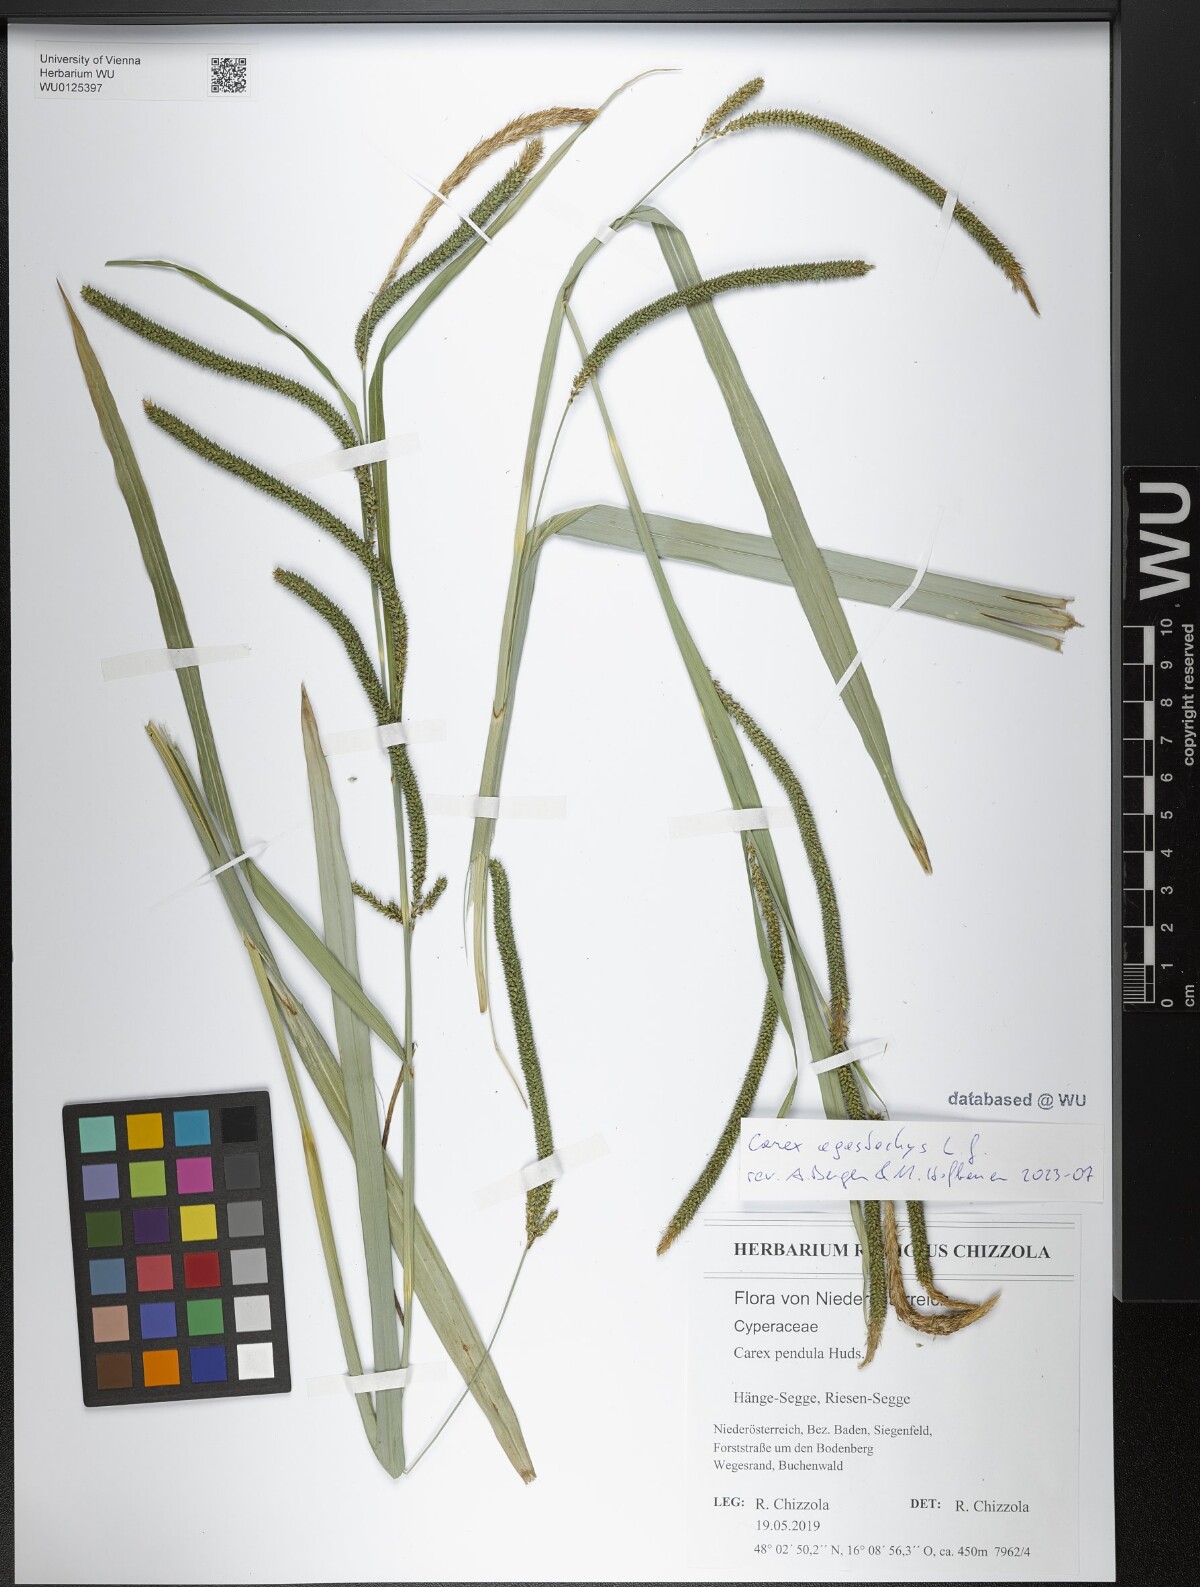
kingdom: Plantae
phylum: Tracheophyta
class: Liliopsida
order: Poales
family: Cyperaceae
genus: Carex
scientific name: Carex agastachys
